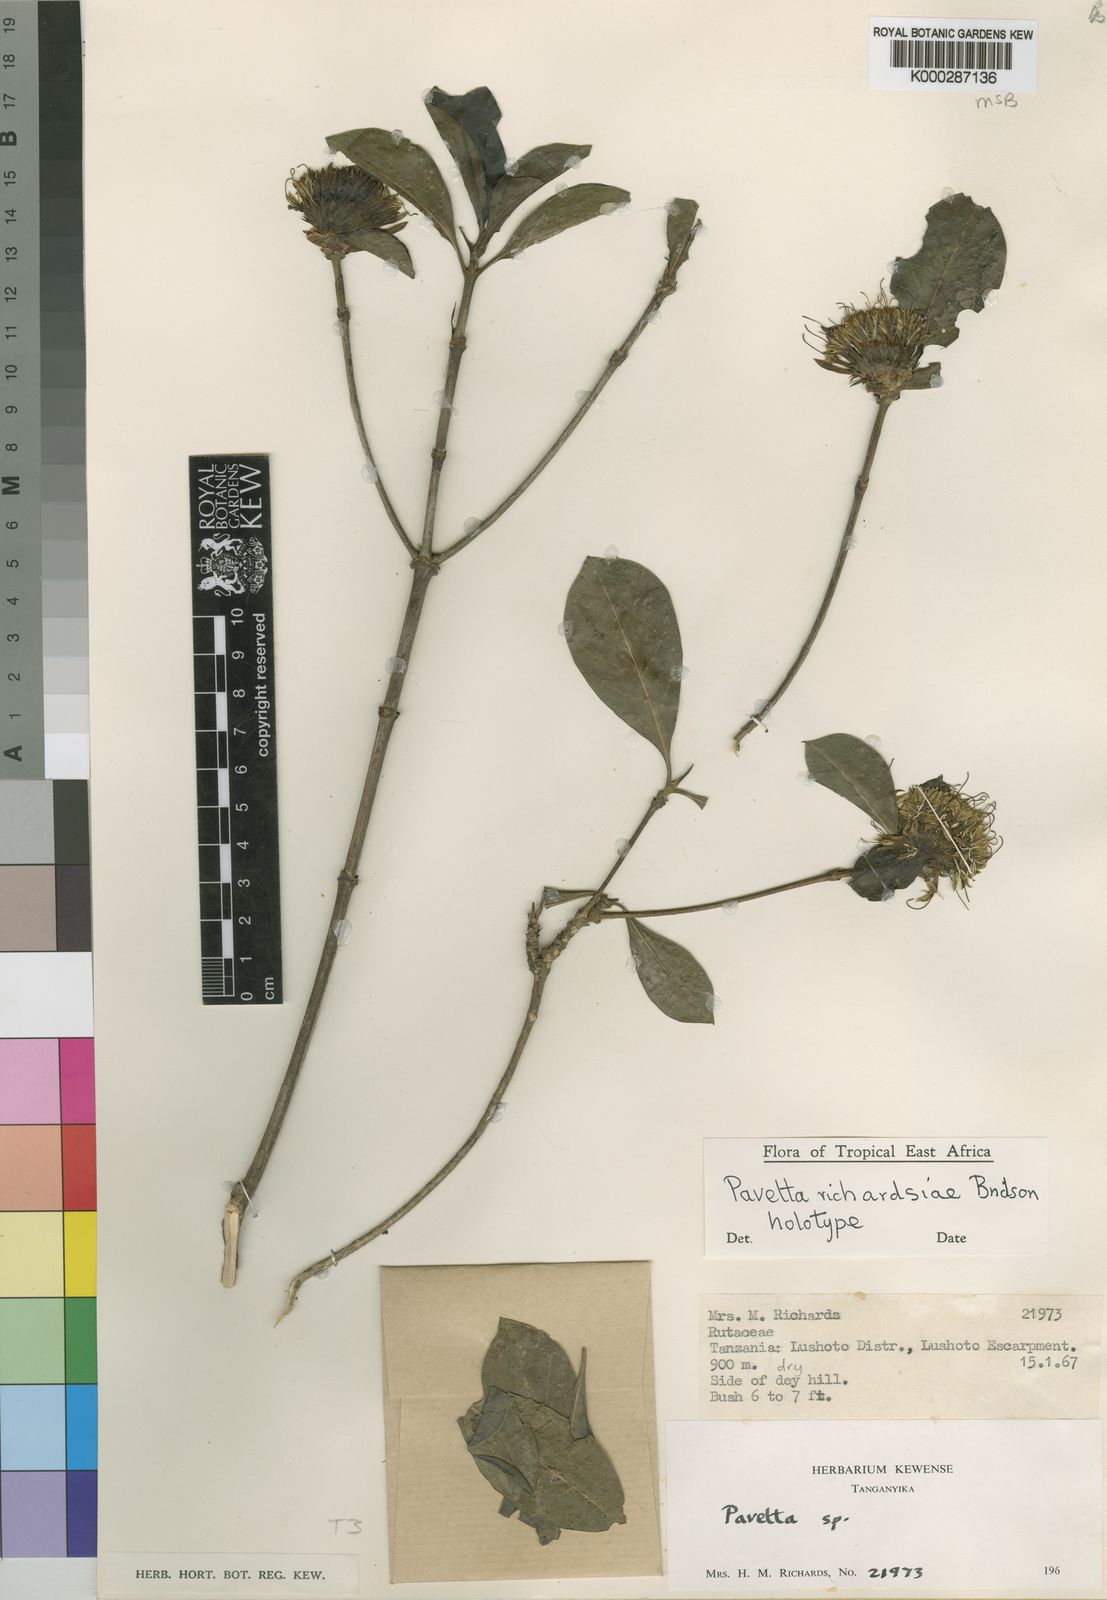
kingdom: Plantae
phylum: Tracheophyta
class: Magnoliopsida
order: Gentianales
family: Rubiaceae
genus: Pavetta
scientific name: Pavetta richardsiae
